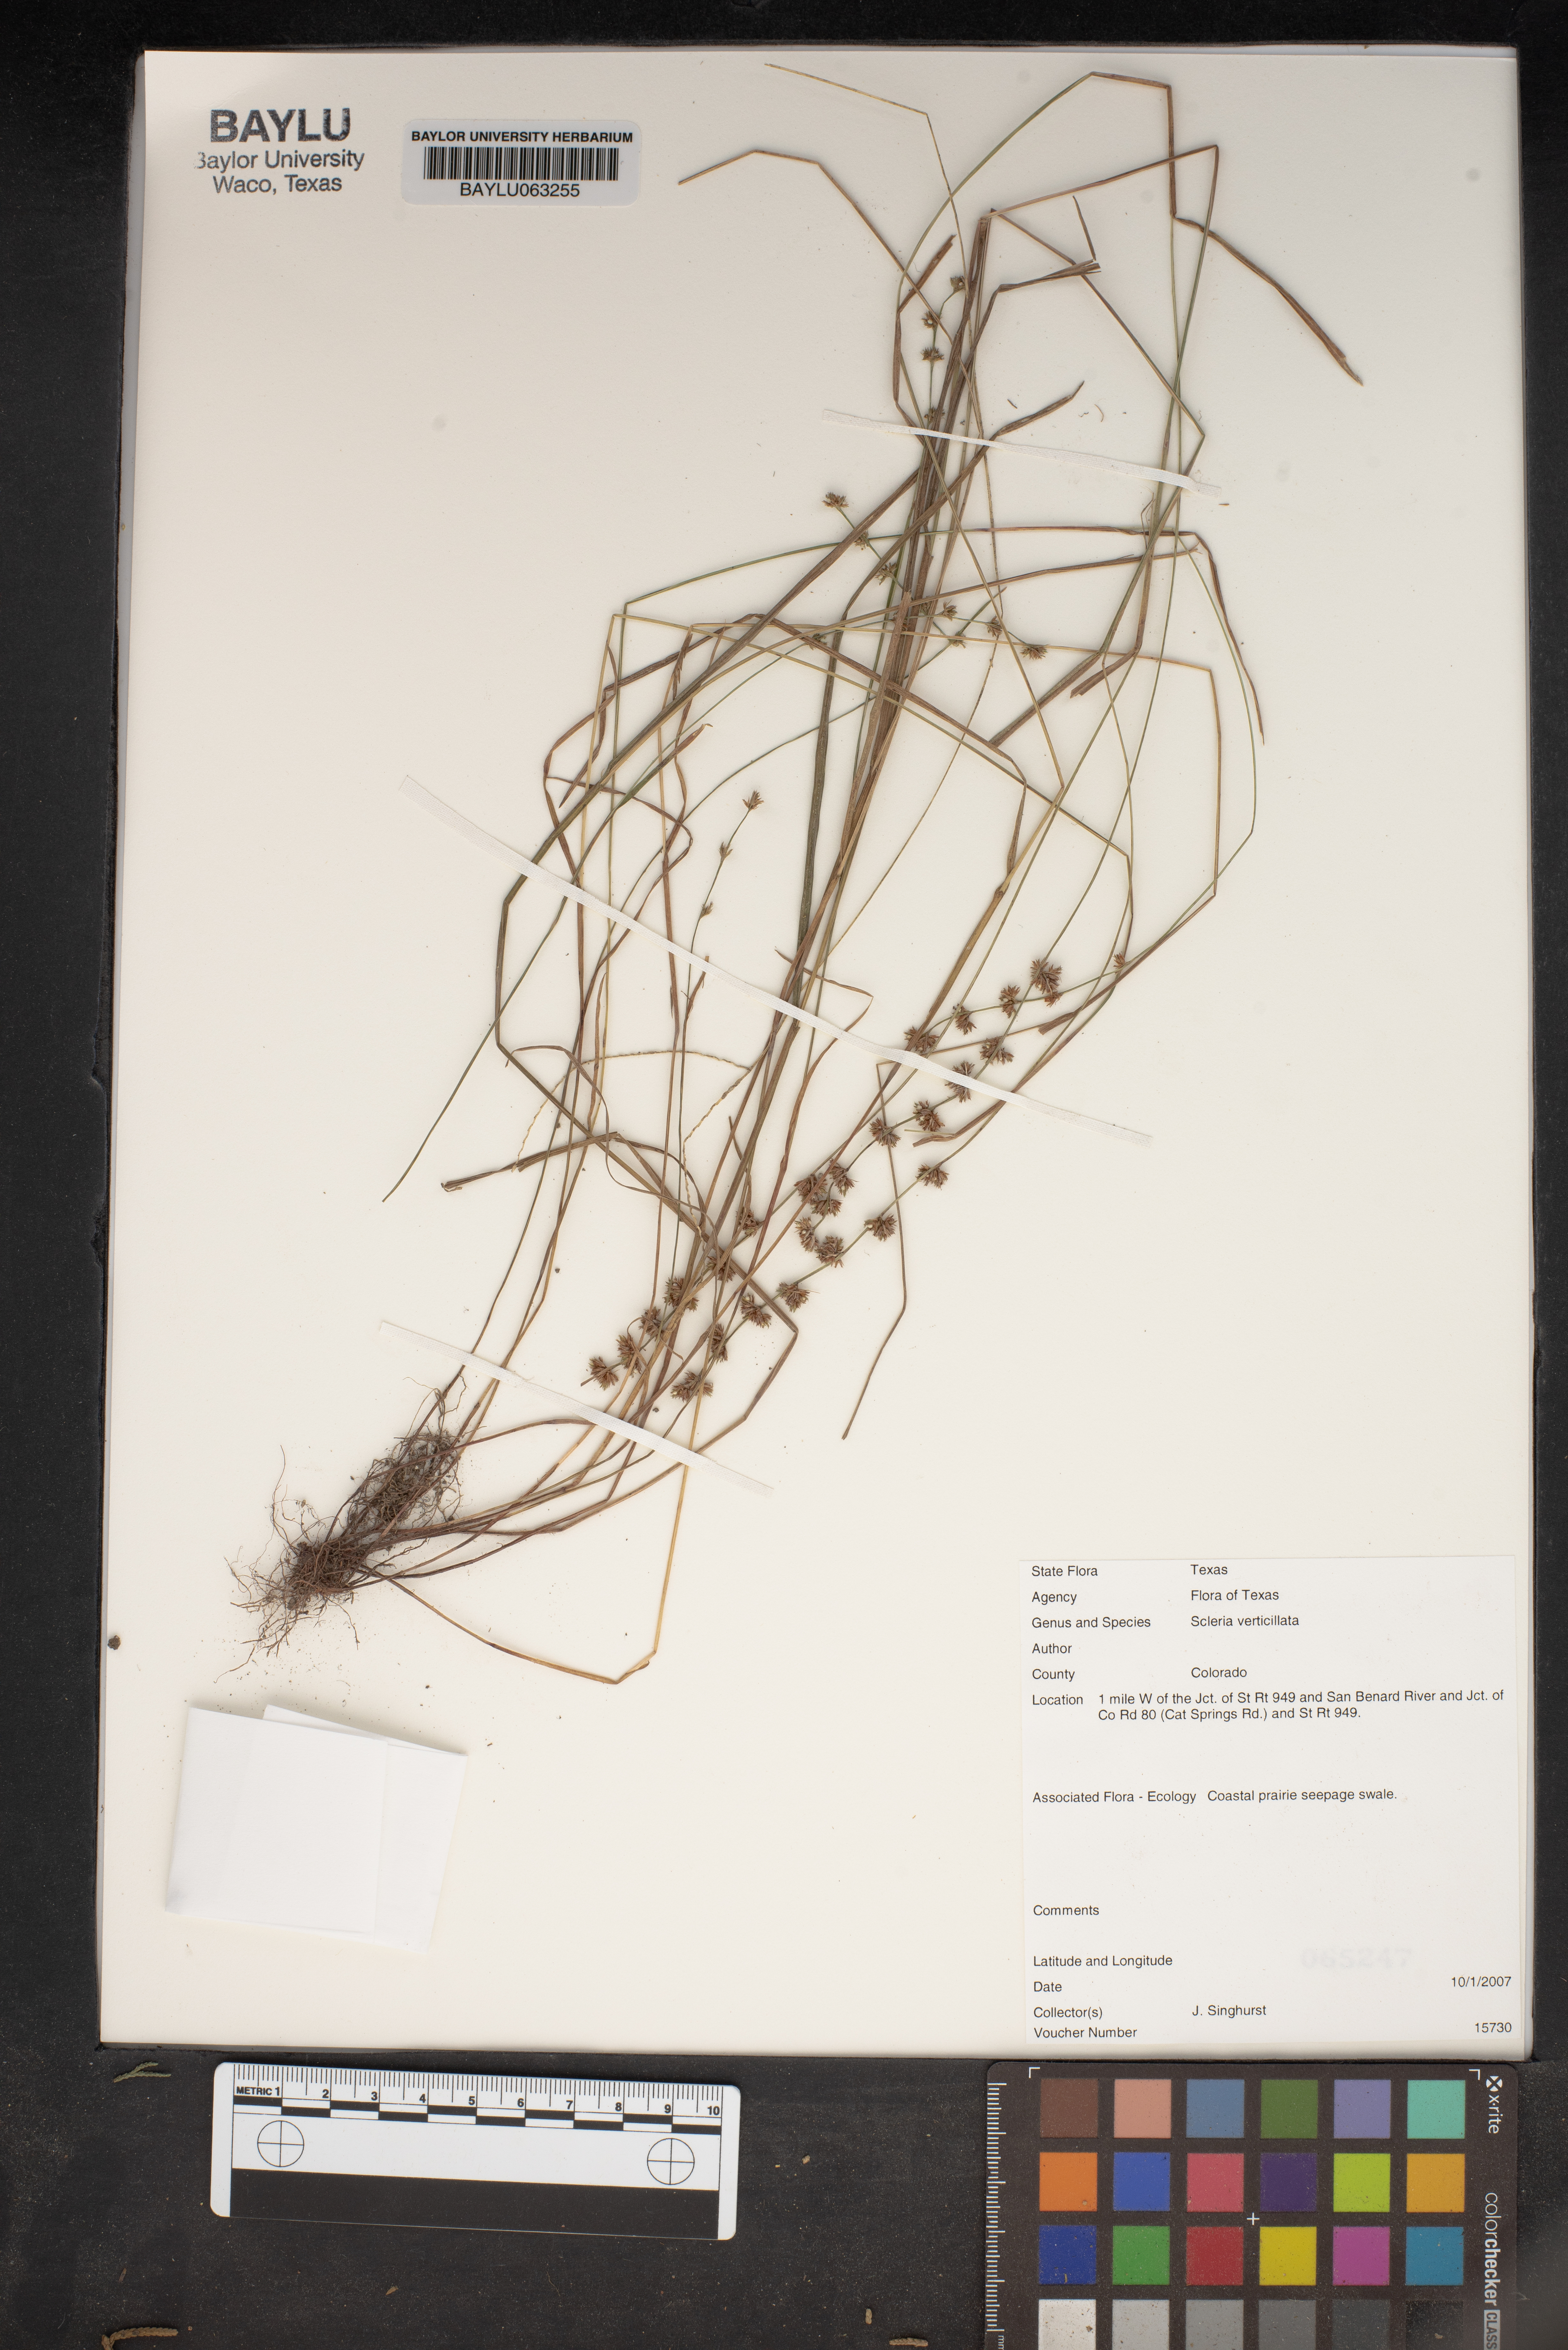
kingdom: Plantae
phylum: Tracheophyta
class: Liliopsida
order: Poales
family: Cyperaceae
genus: Scleria
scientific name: Scleria verticillata
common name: Low nutrush
